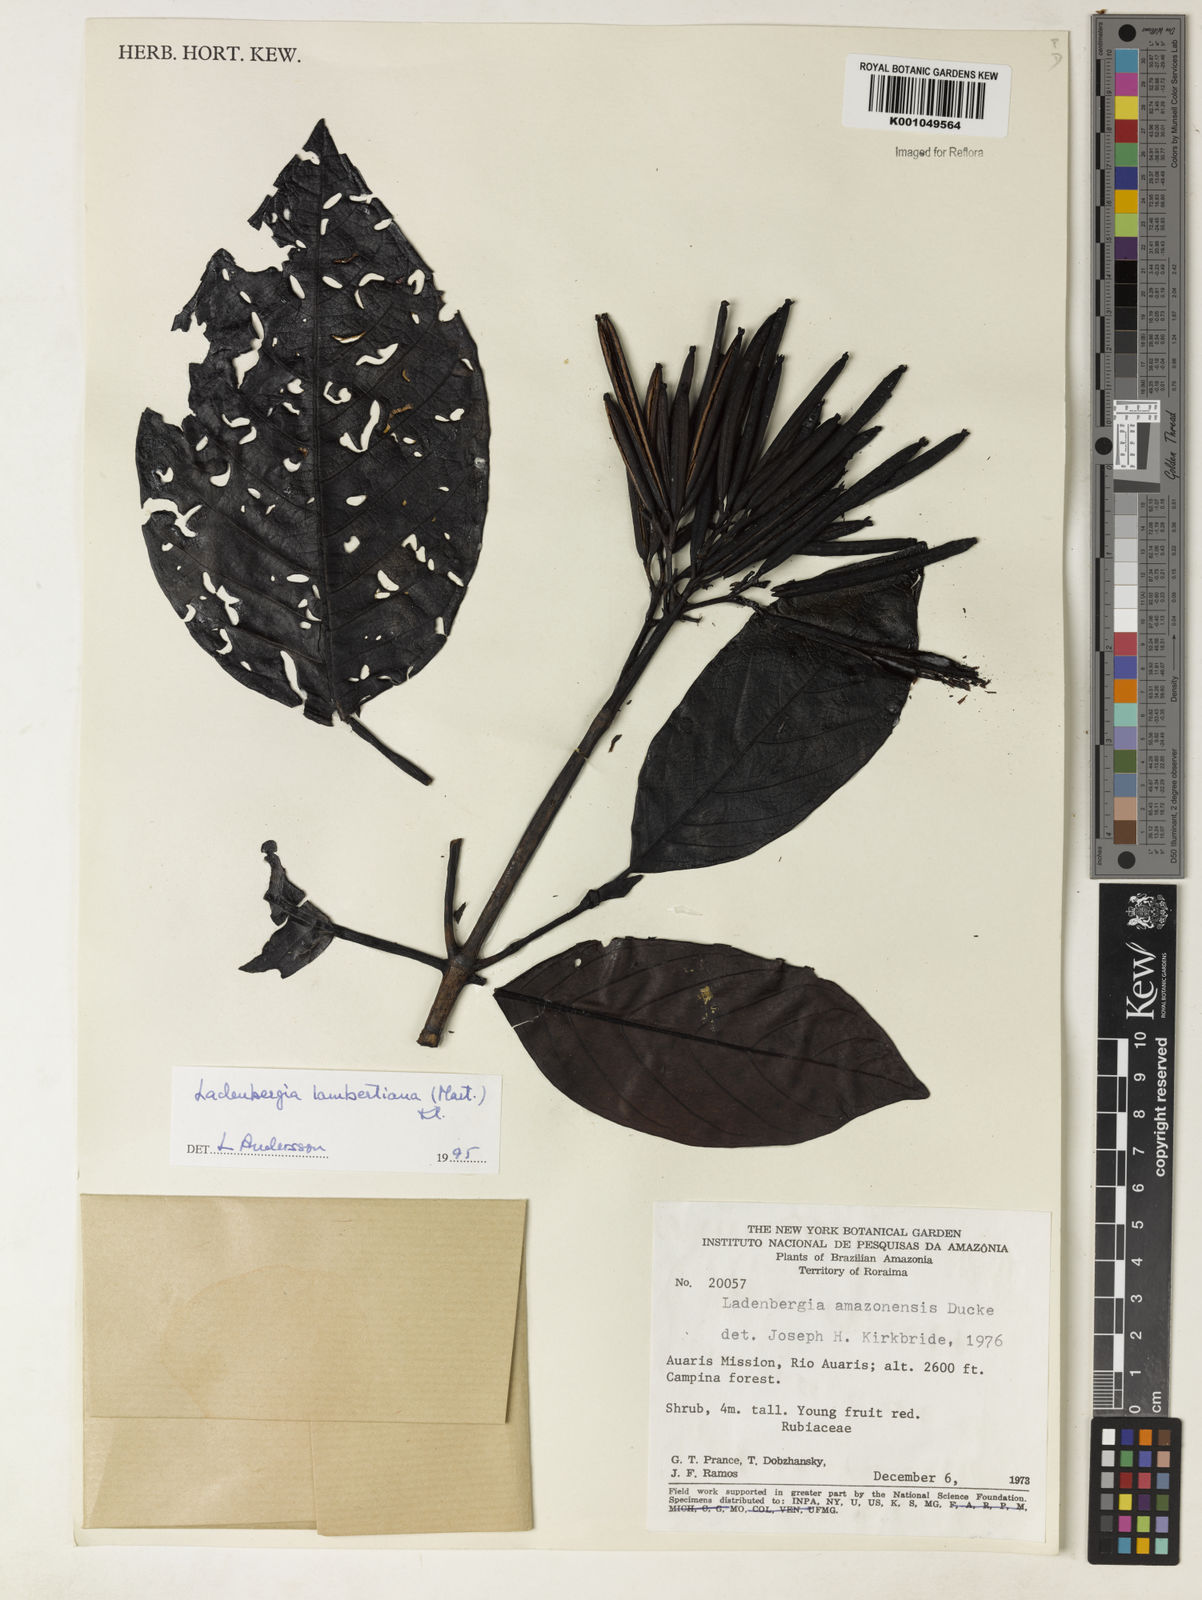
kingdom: Plantae
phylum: Tracheophyta
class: Magnoliopsida
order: Gentianales
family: Rubiaceae
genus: Ladenbergia
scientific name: Ladenbergia lambertiana
